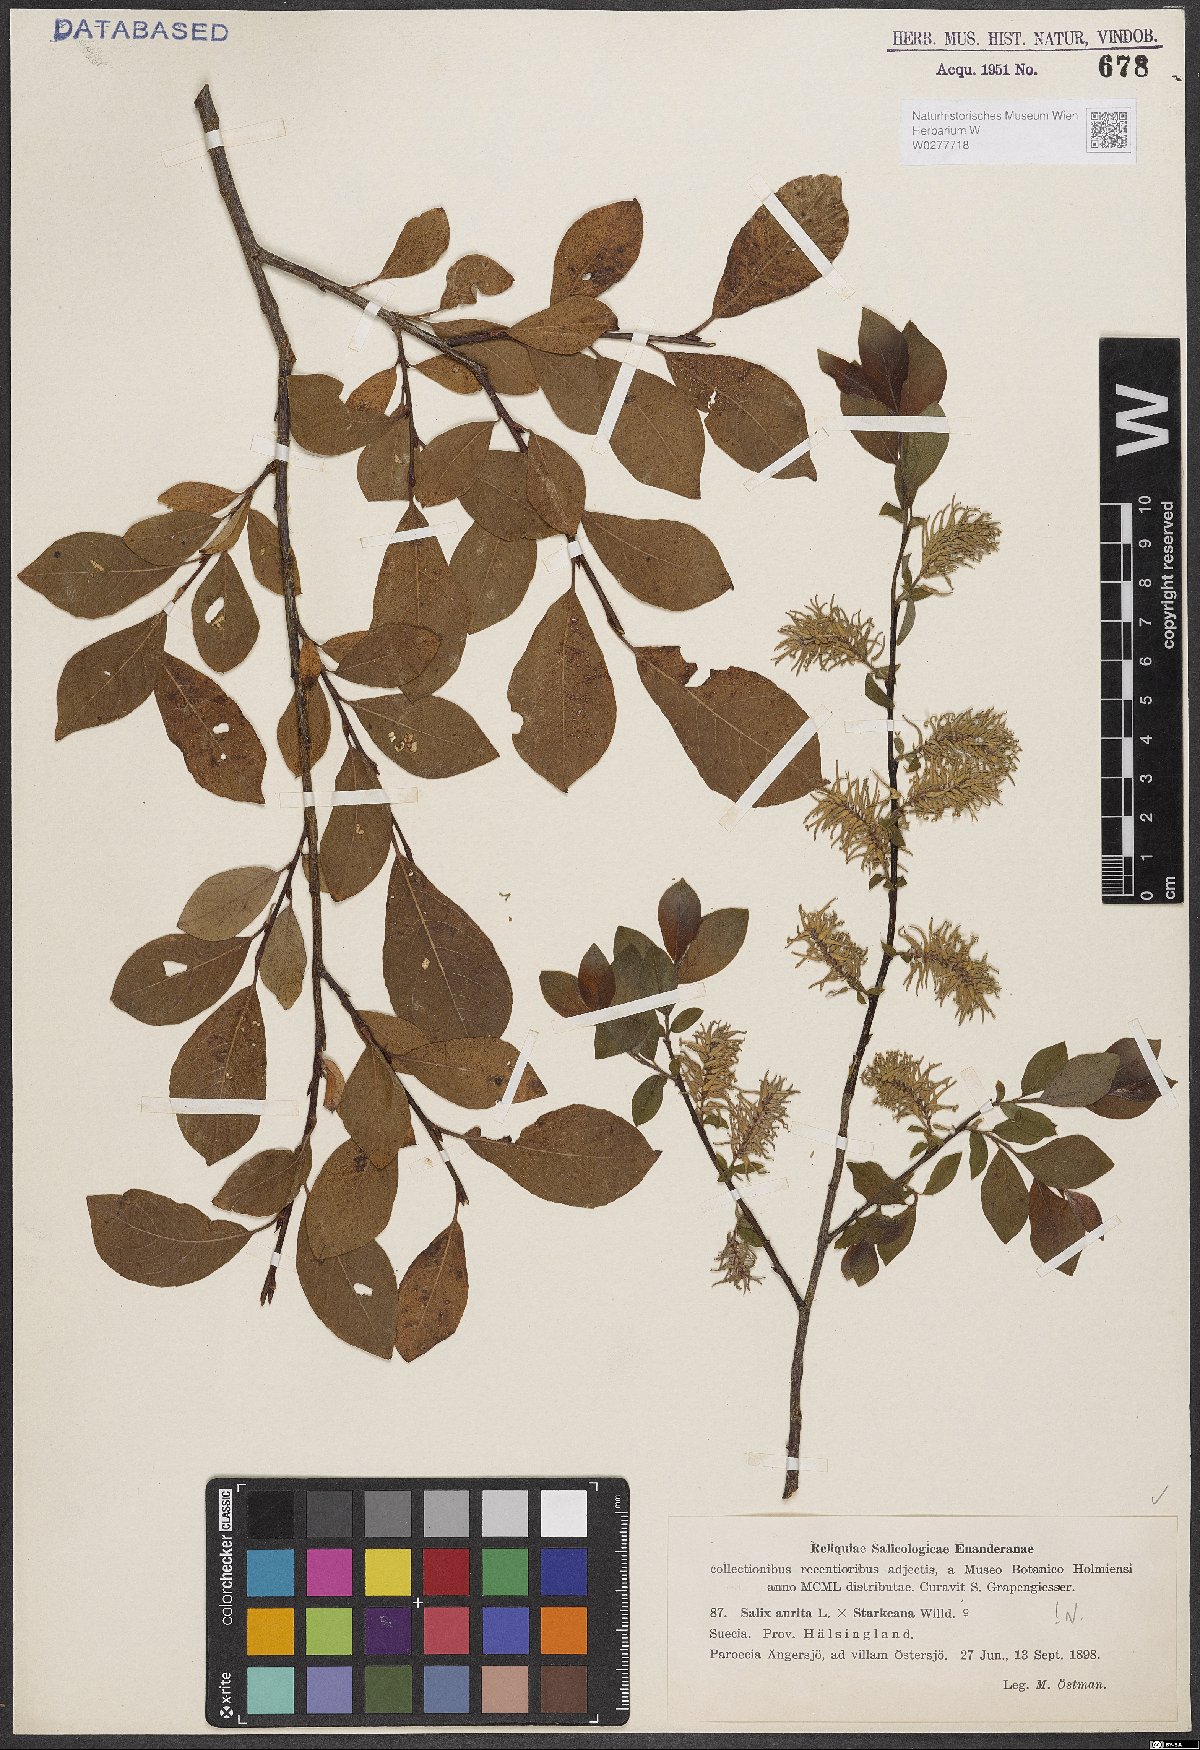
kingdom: Plantae
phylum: Tracheophyta
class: Magnoliopsida
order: Malpighiales
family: Salicaceae
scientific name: Salicaceae
